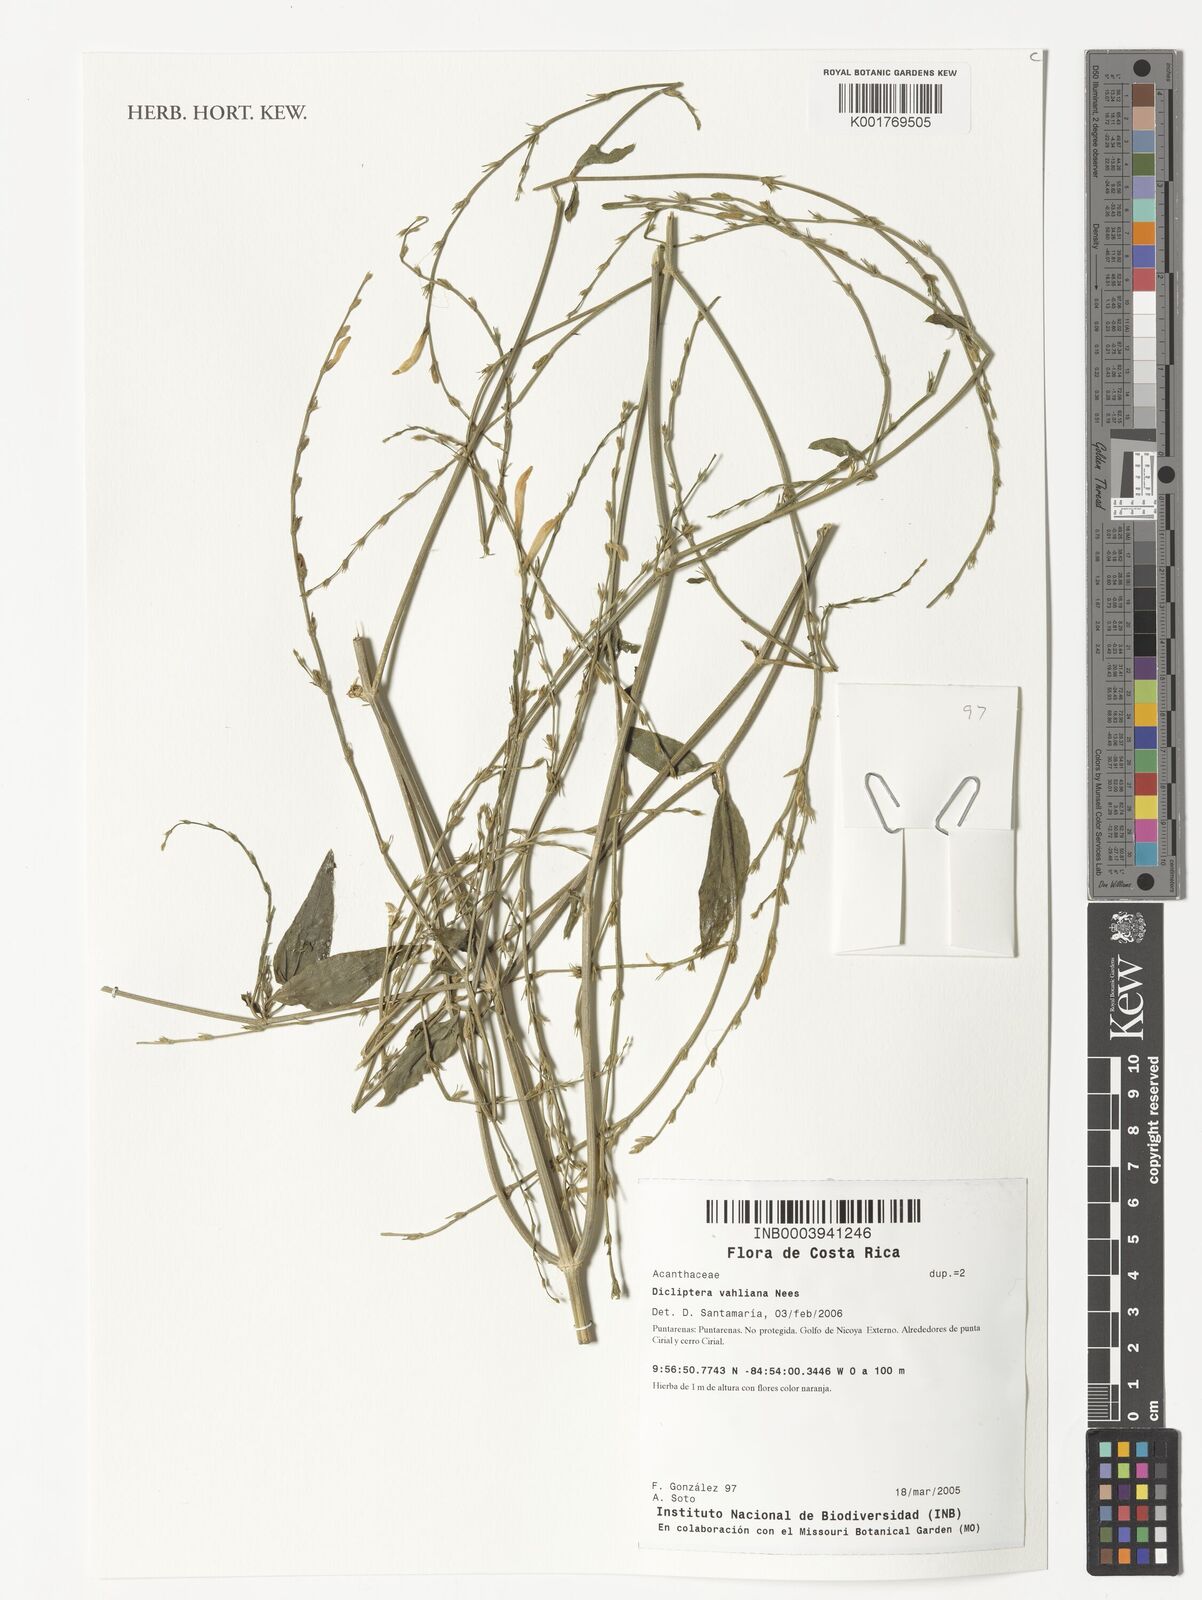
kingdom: Plantae
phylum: Tracheophyta
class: Magnoliopsida
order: Lamiales
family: Acanthaceae
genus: Dicliptera
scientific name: Dicliptera sexangularis
